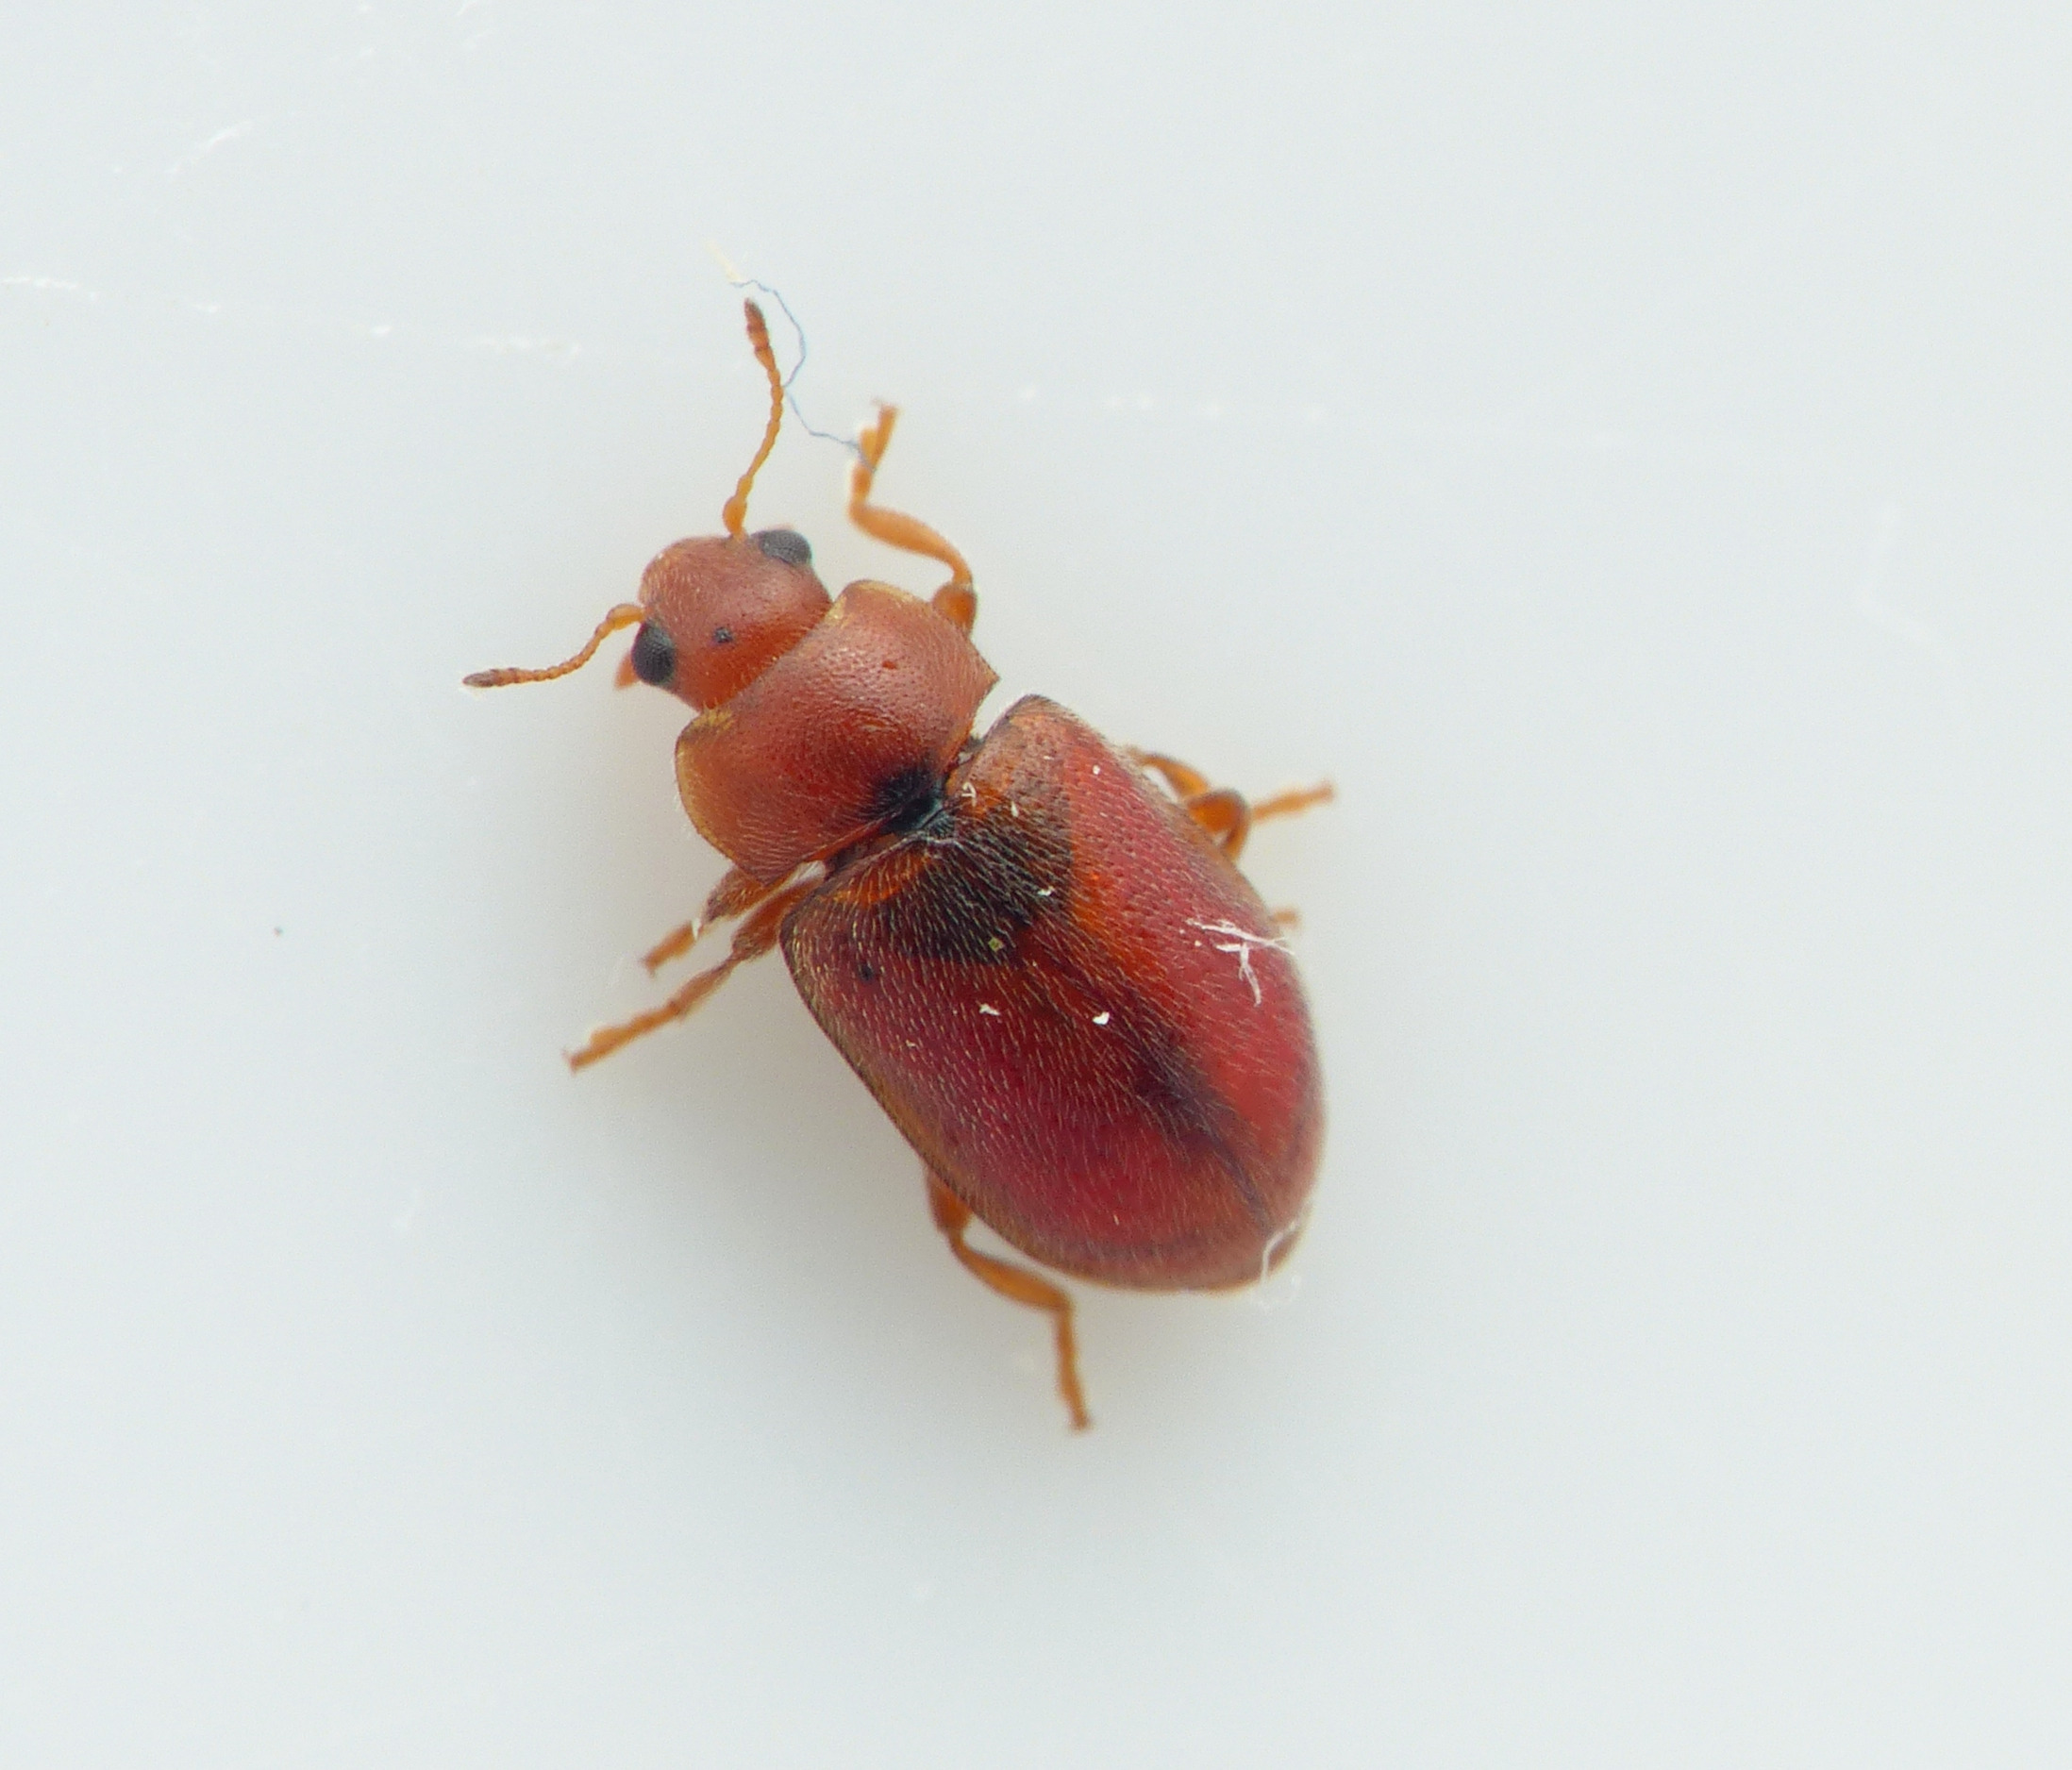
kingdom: Animalia
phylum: Arthropoda
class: Insecta
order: Coleoptera
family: Coccinellidae
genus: Coccidula
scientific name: Coccidula rufa
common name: Slank mariehøne
